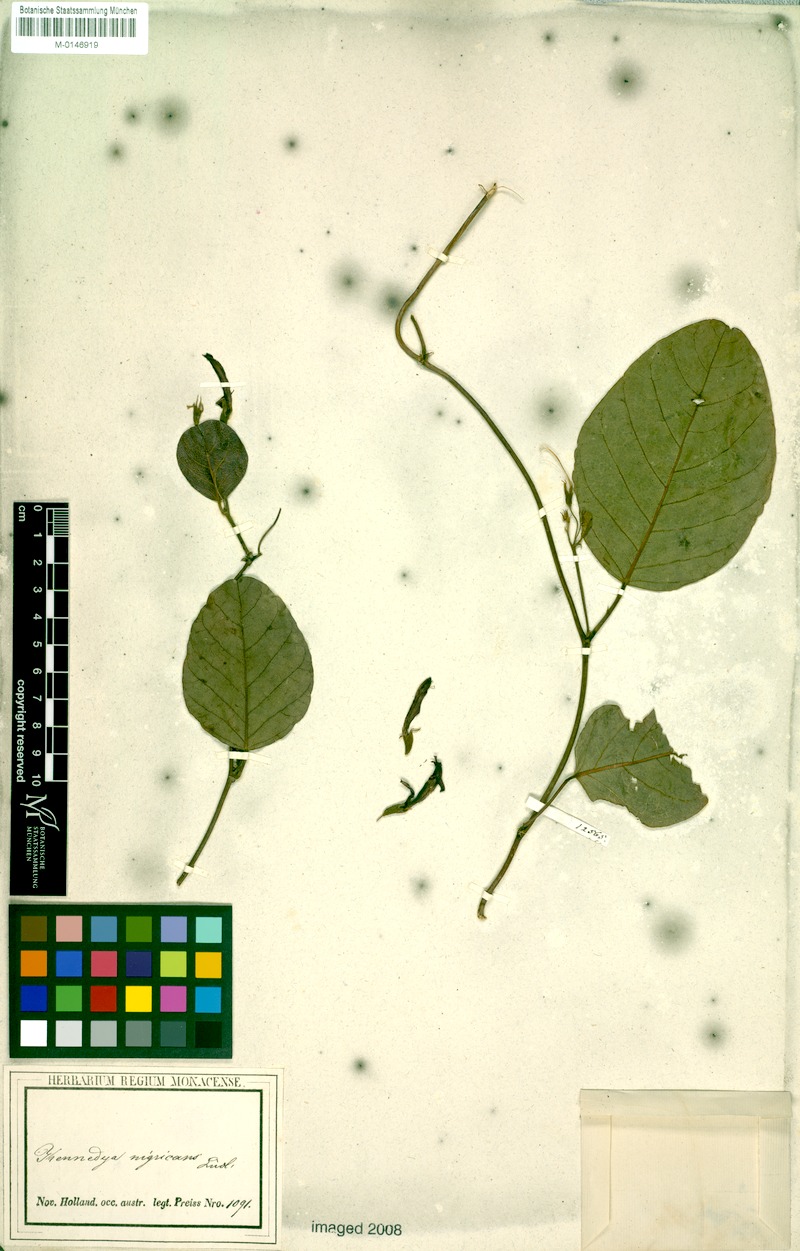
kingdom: Plantae
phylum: Tracheophyta
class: Magnoliopsida
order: Fabales
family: Fabaceae
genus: Kennedia
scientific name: Kennedia nigricans
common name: Black-bean
